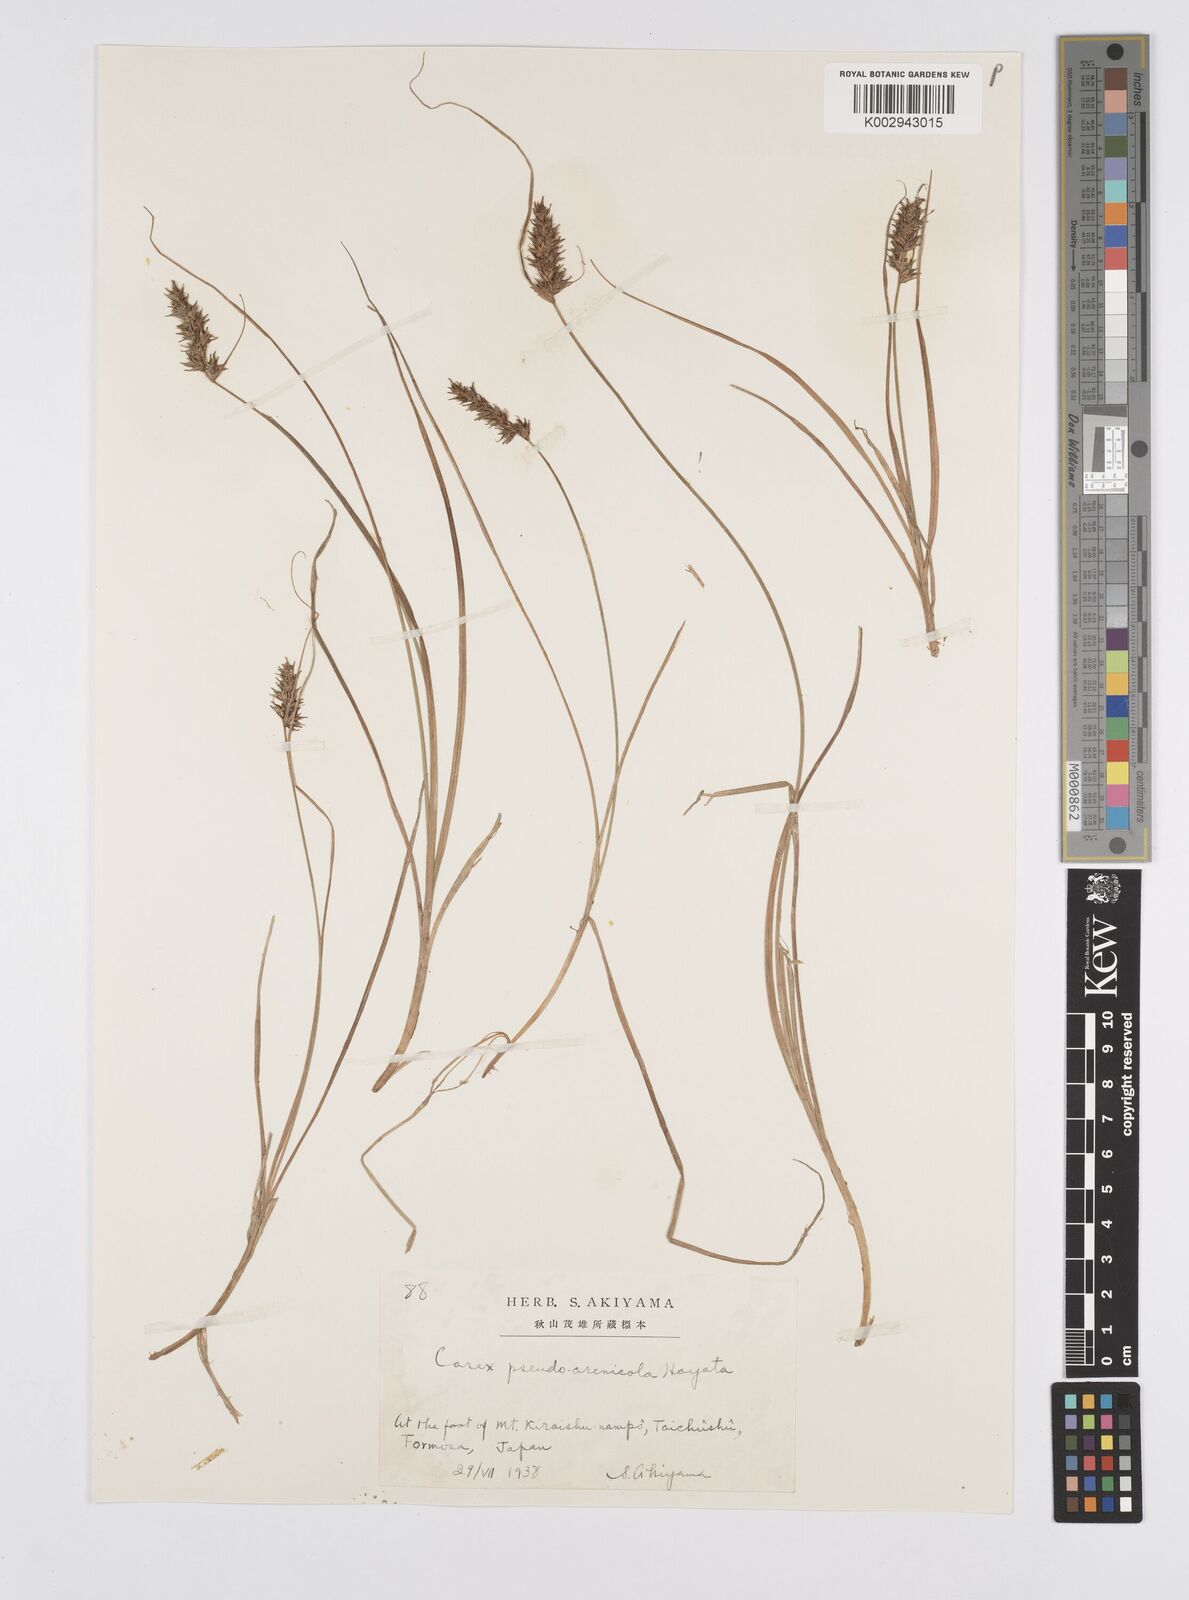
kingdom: Plantae
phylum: Tracheophyta
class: Liliopsida
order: Poales
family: Cyperaceae
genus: Carex
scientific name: Carex nubigena
